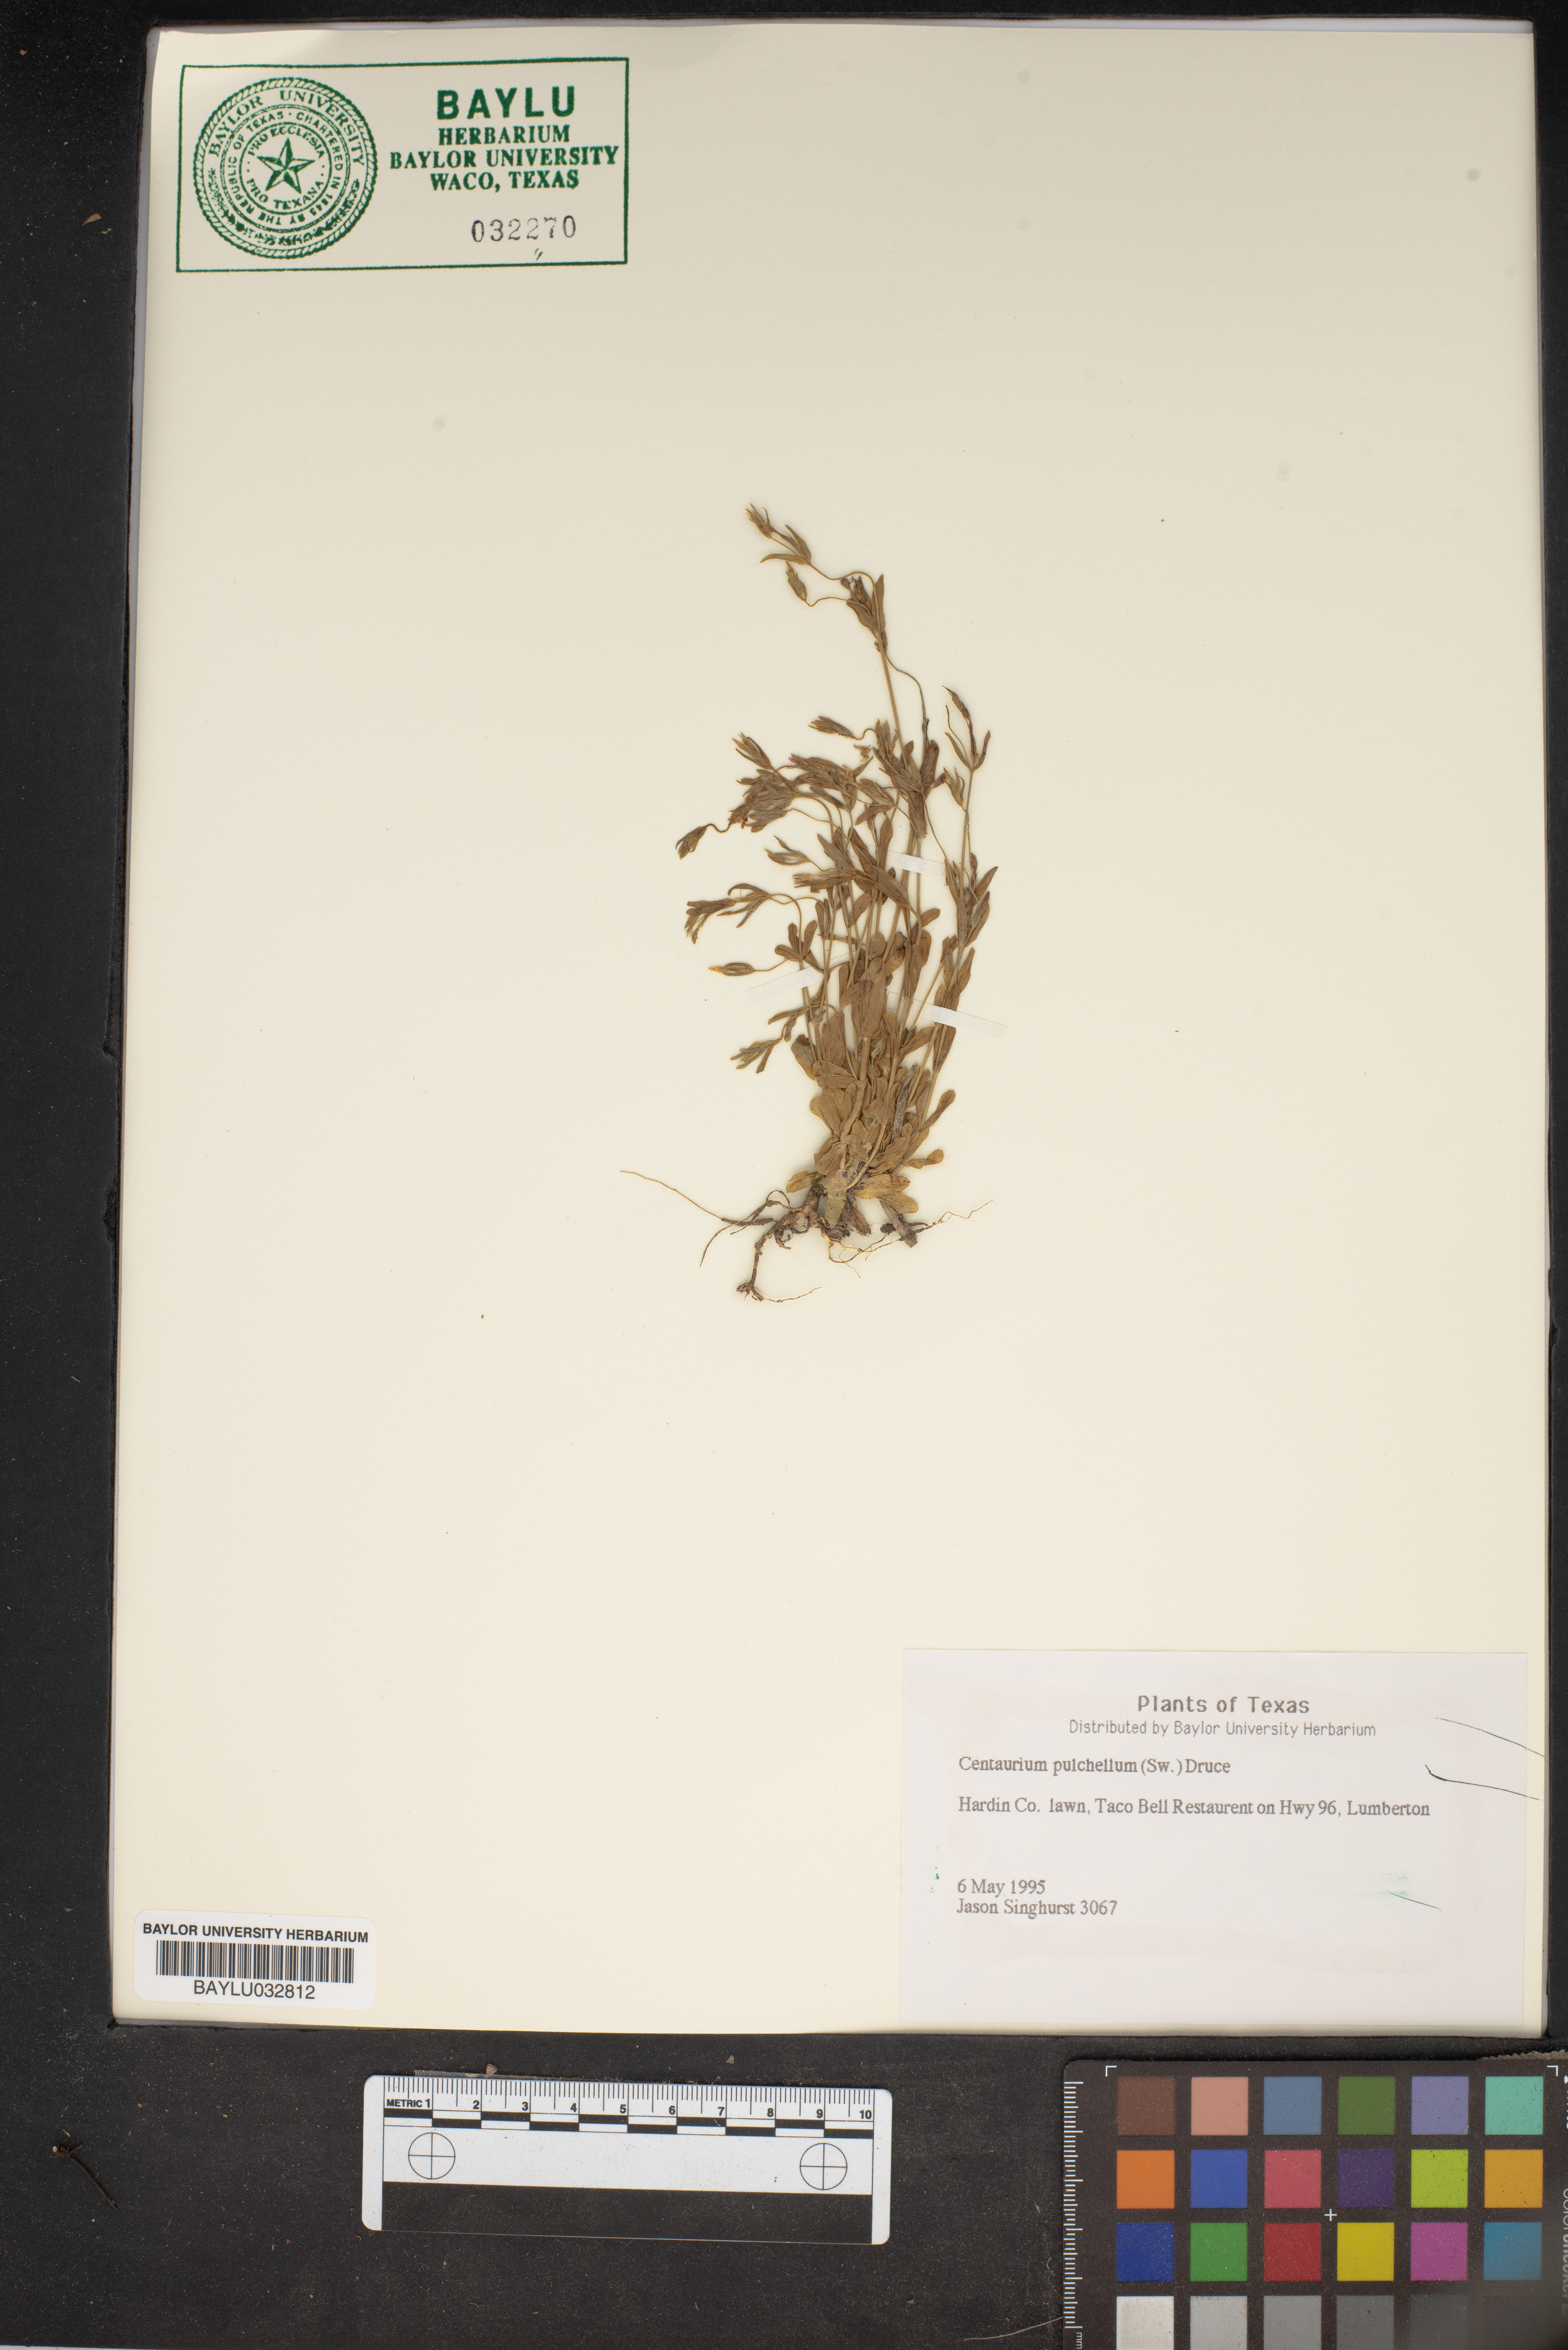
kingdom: Plantae
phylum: Tracheophyta
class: Magnoliopsida
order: Gentianales
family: Gentianaceae
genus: Centaurium
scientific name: Centaurium pulchellum
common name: Lesser centaury
